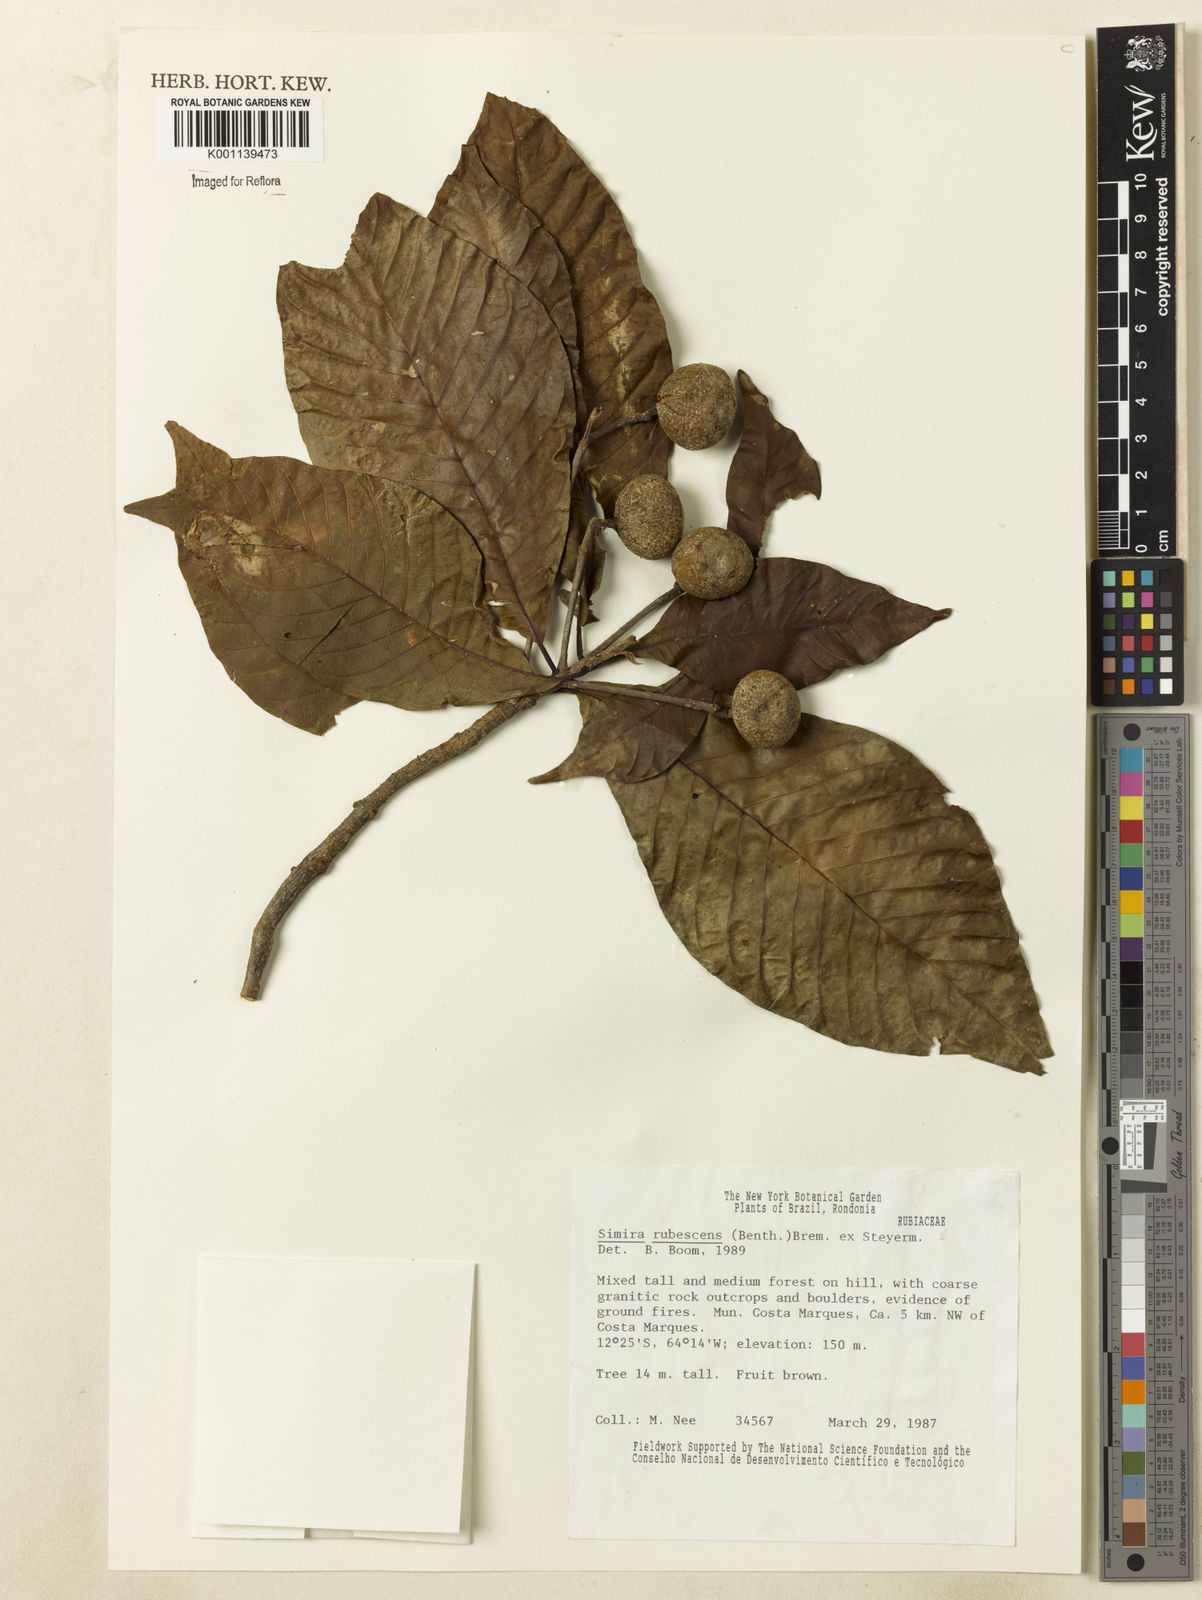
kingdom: Plantae
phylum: Tracheophyta
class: Magnoliopsida
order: Gentianales
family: Rubiaceae
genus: Simira
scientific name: Simira rubescens
